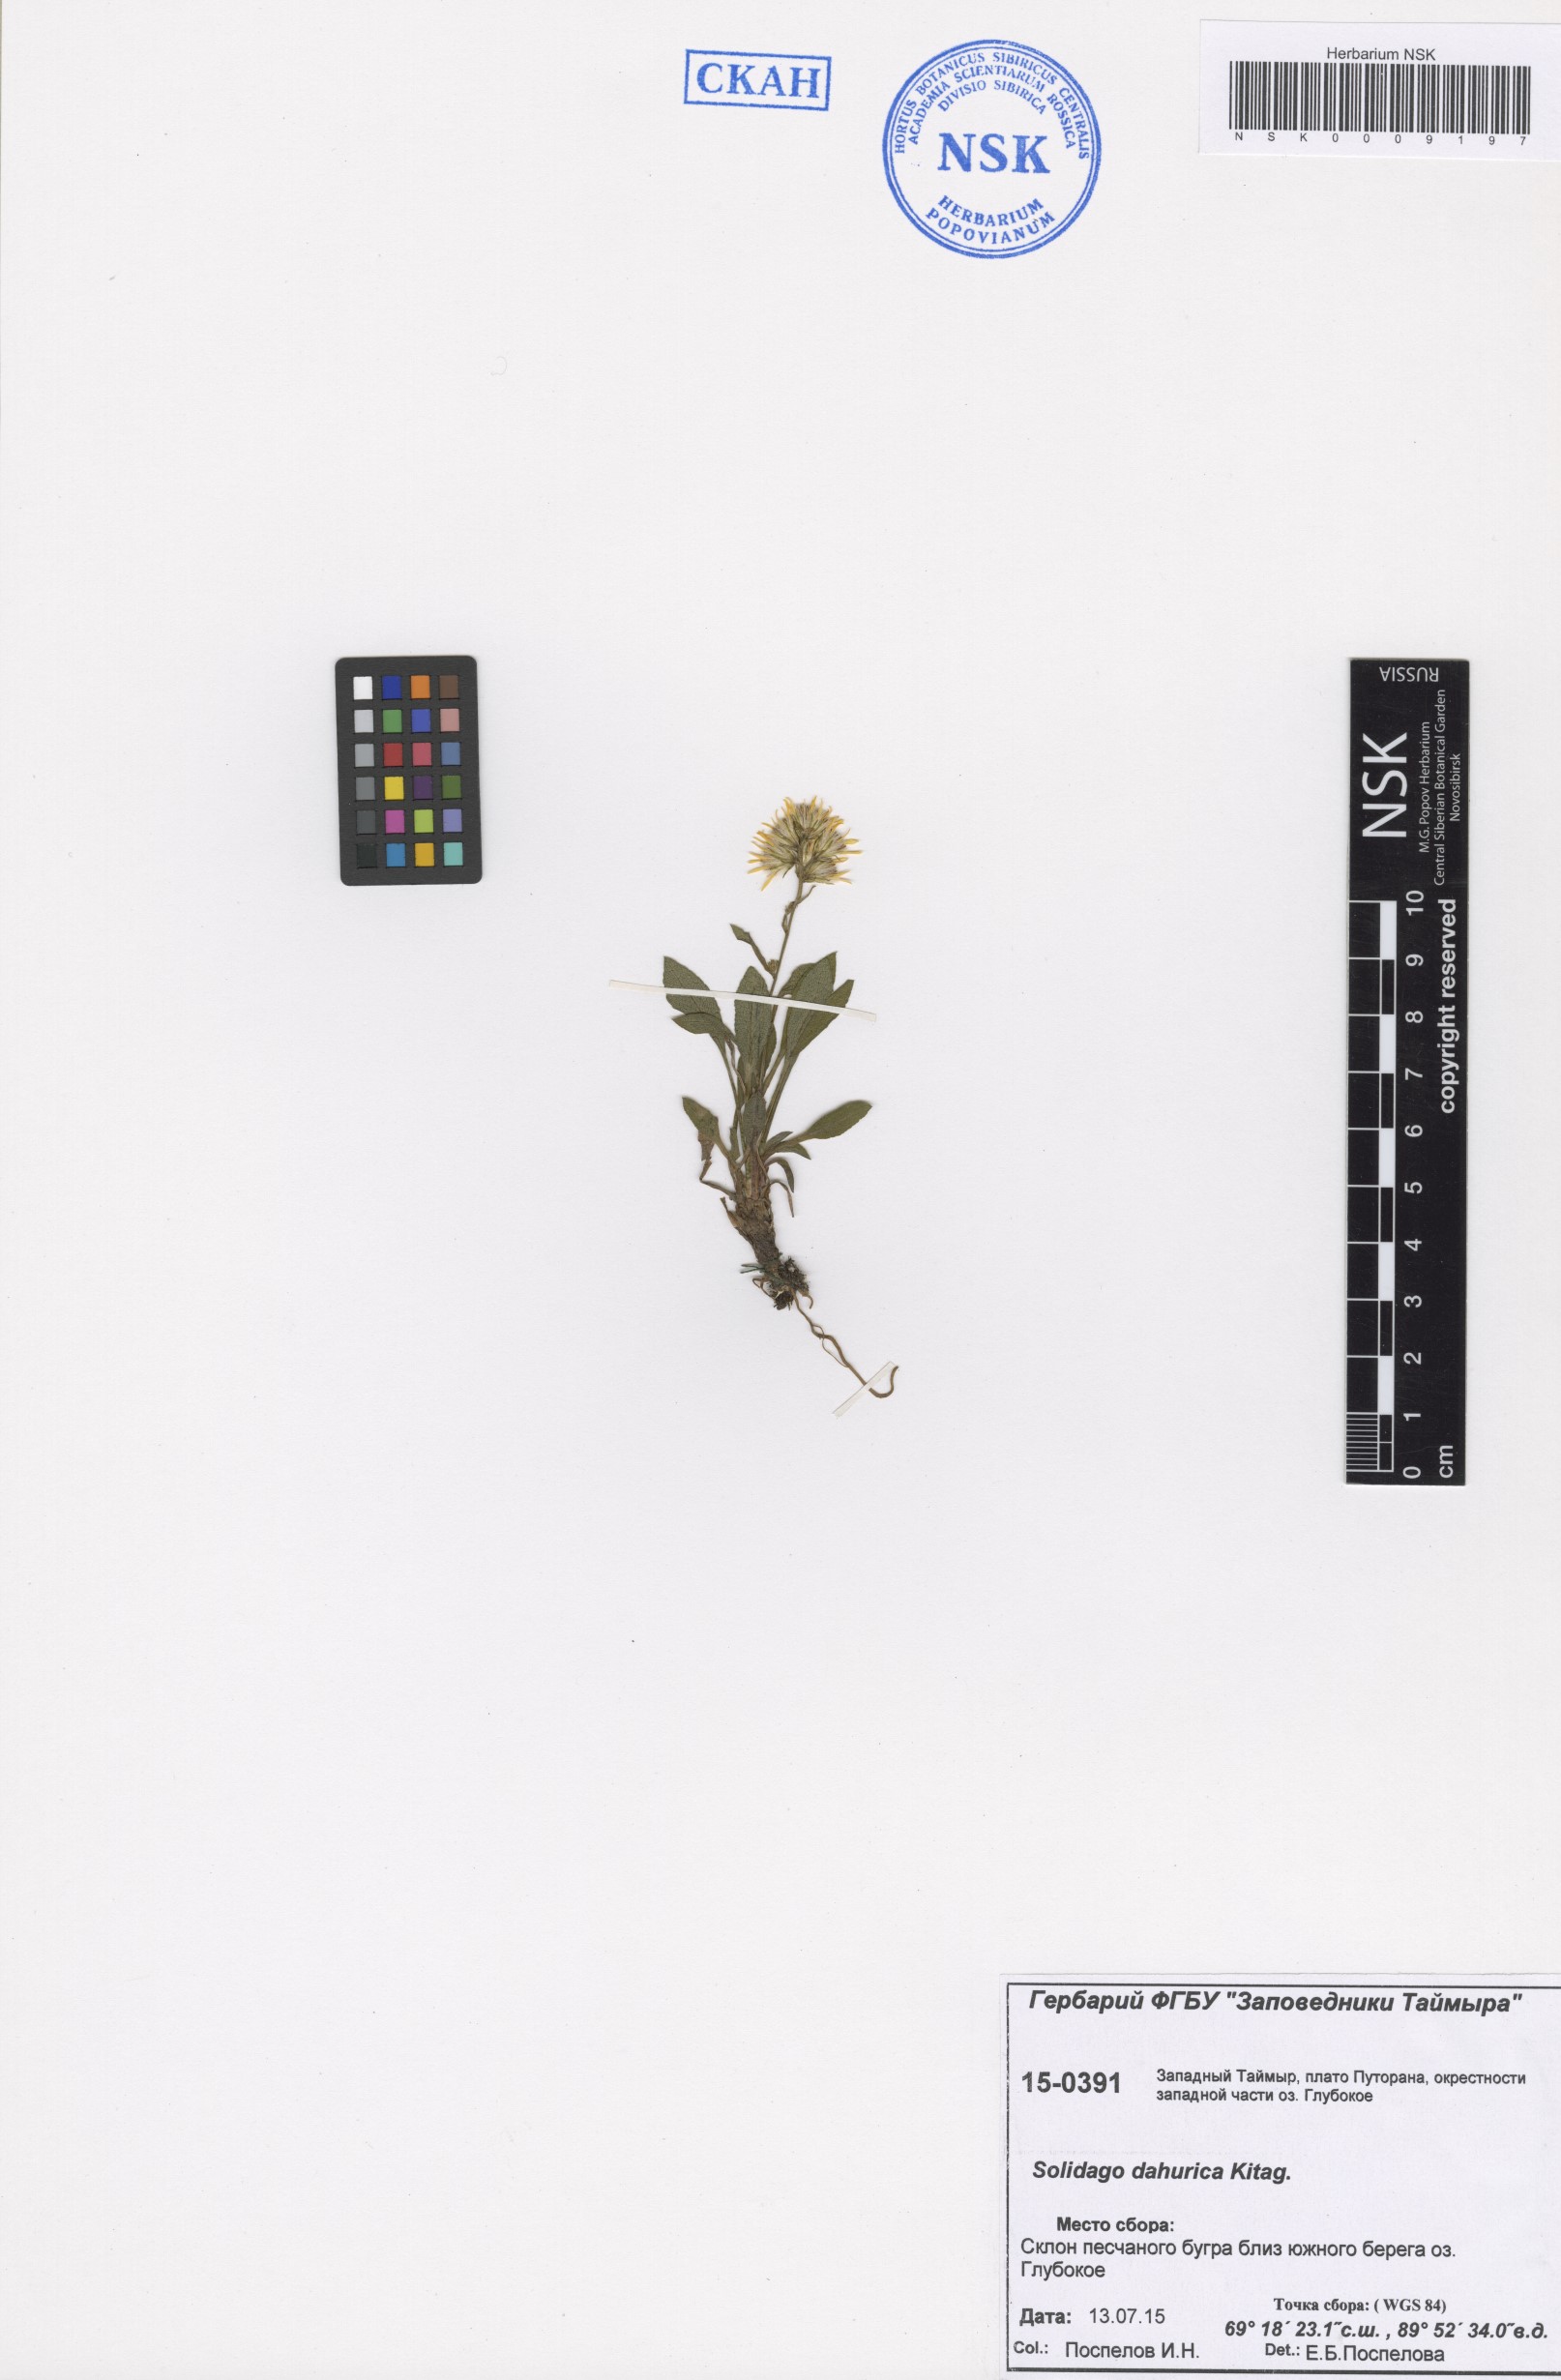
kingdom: Plantae
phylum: Tracheophyta
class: Magnoliopsida
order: Asterales
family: Asteraceae
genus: Solidago
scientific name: Solidago dahurica
